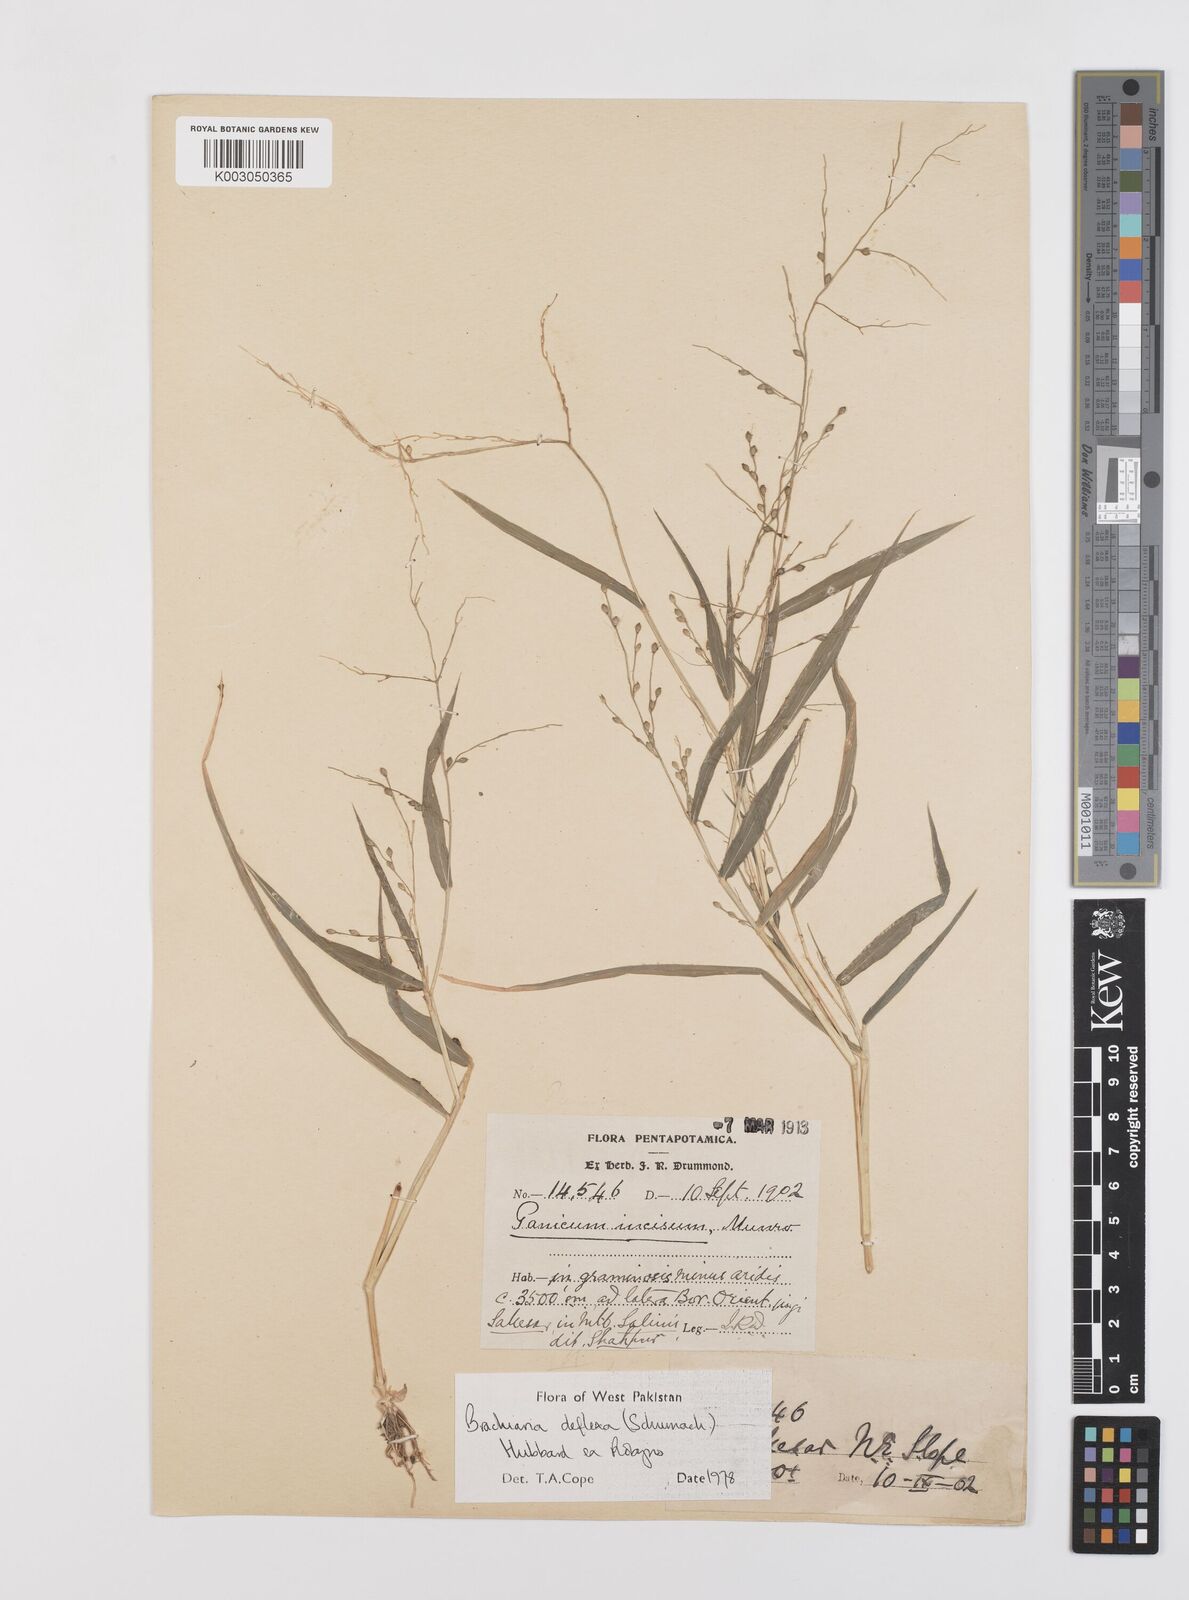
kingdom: Plantae
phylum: Tracheophyta
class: Liliopsida
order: Poales
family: Poaceae
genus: Urochloa
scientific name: Urochloa deflexa
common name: Guinea millet
